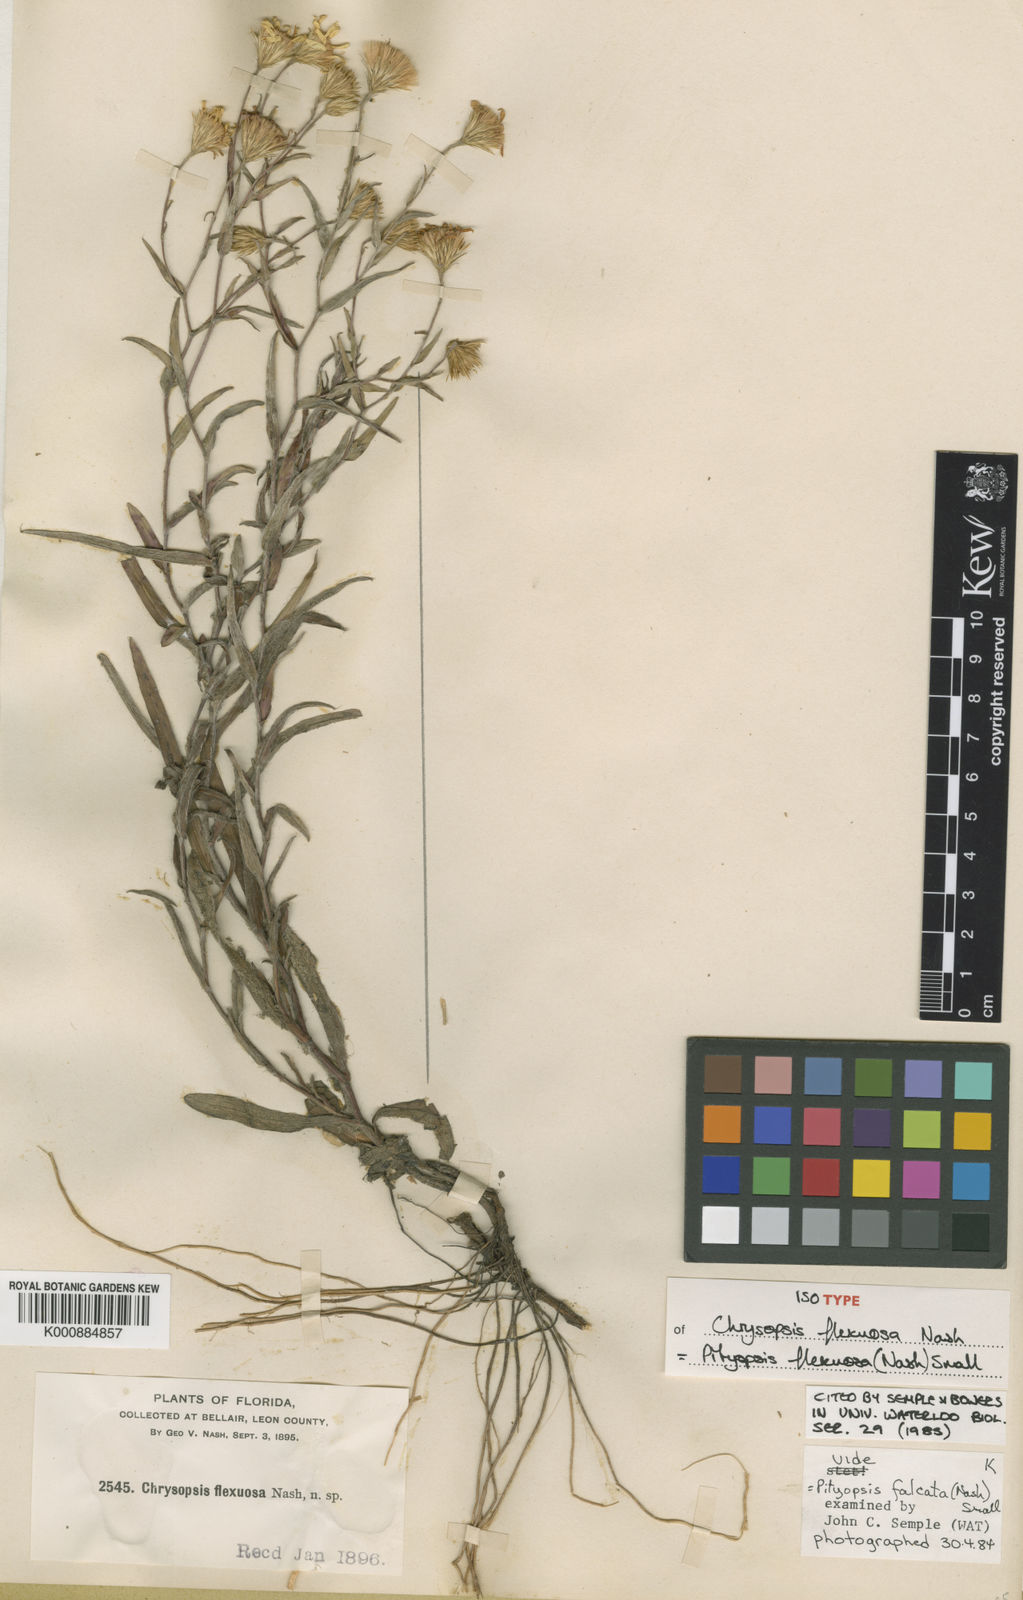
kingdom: Plantae
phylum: Tracheophyta
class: Magnoliopsida
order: Asterales
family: Asteraceae
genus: Pityopsis
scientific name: Pityopsis flexuosa
